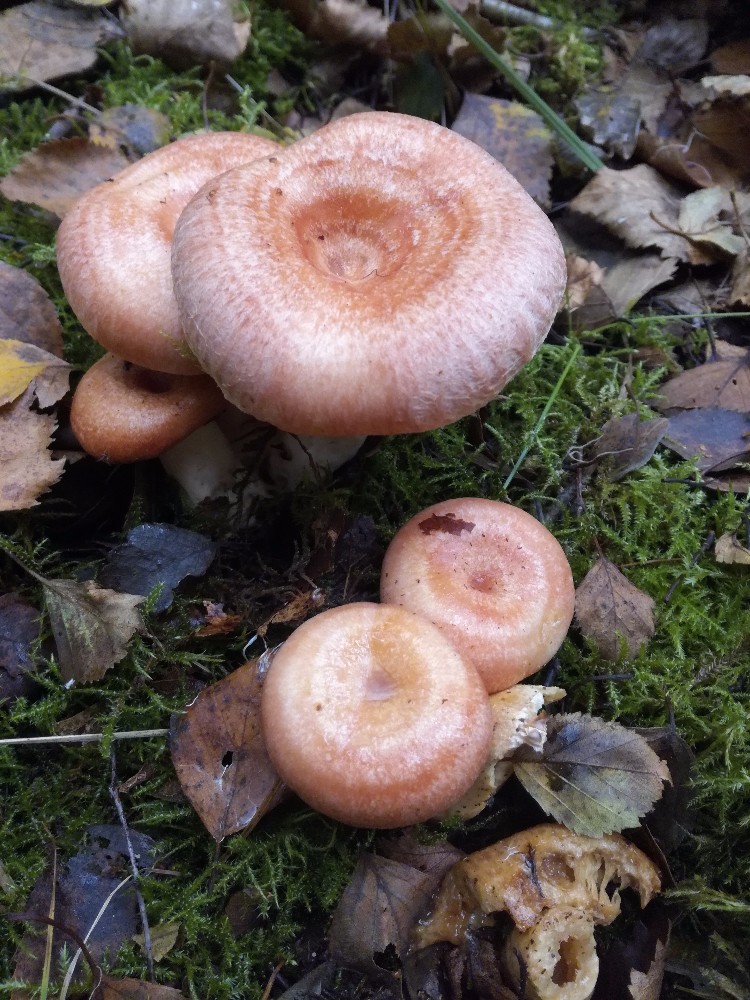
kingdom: Fungi
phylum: Basidiomycota
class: Agaricomycetes
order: Russulales
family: Russulaceae
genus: Lactarius
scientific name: Lactarius torminosus
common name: skægget mælkehat
